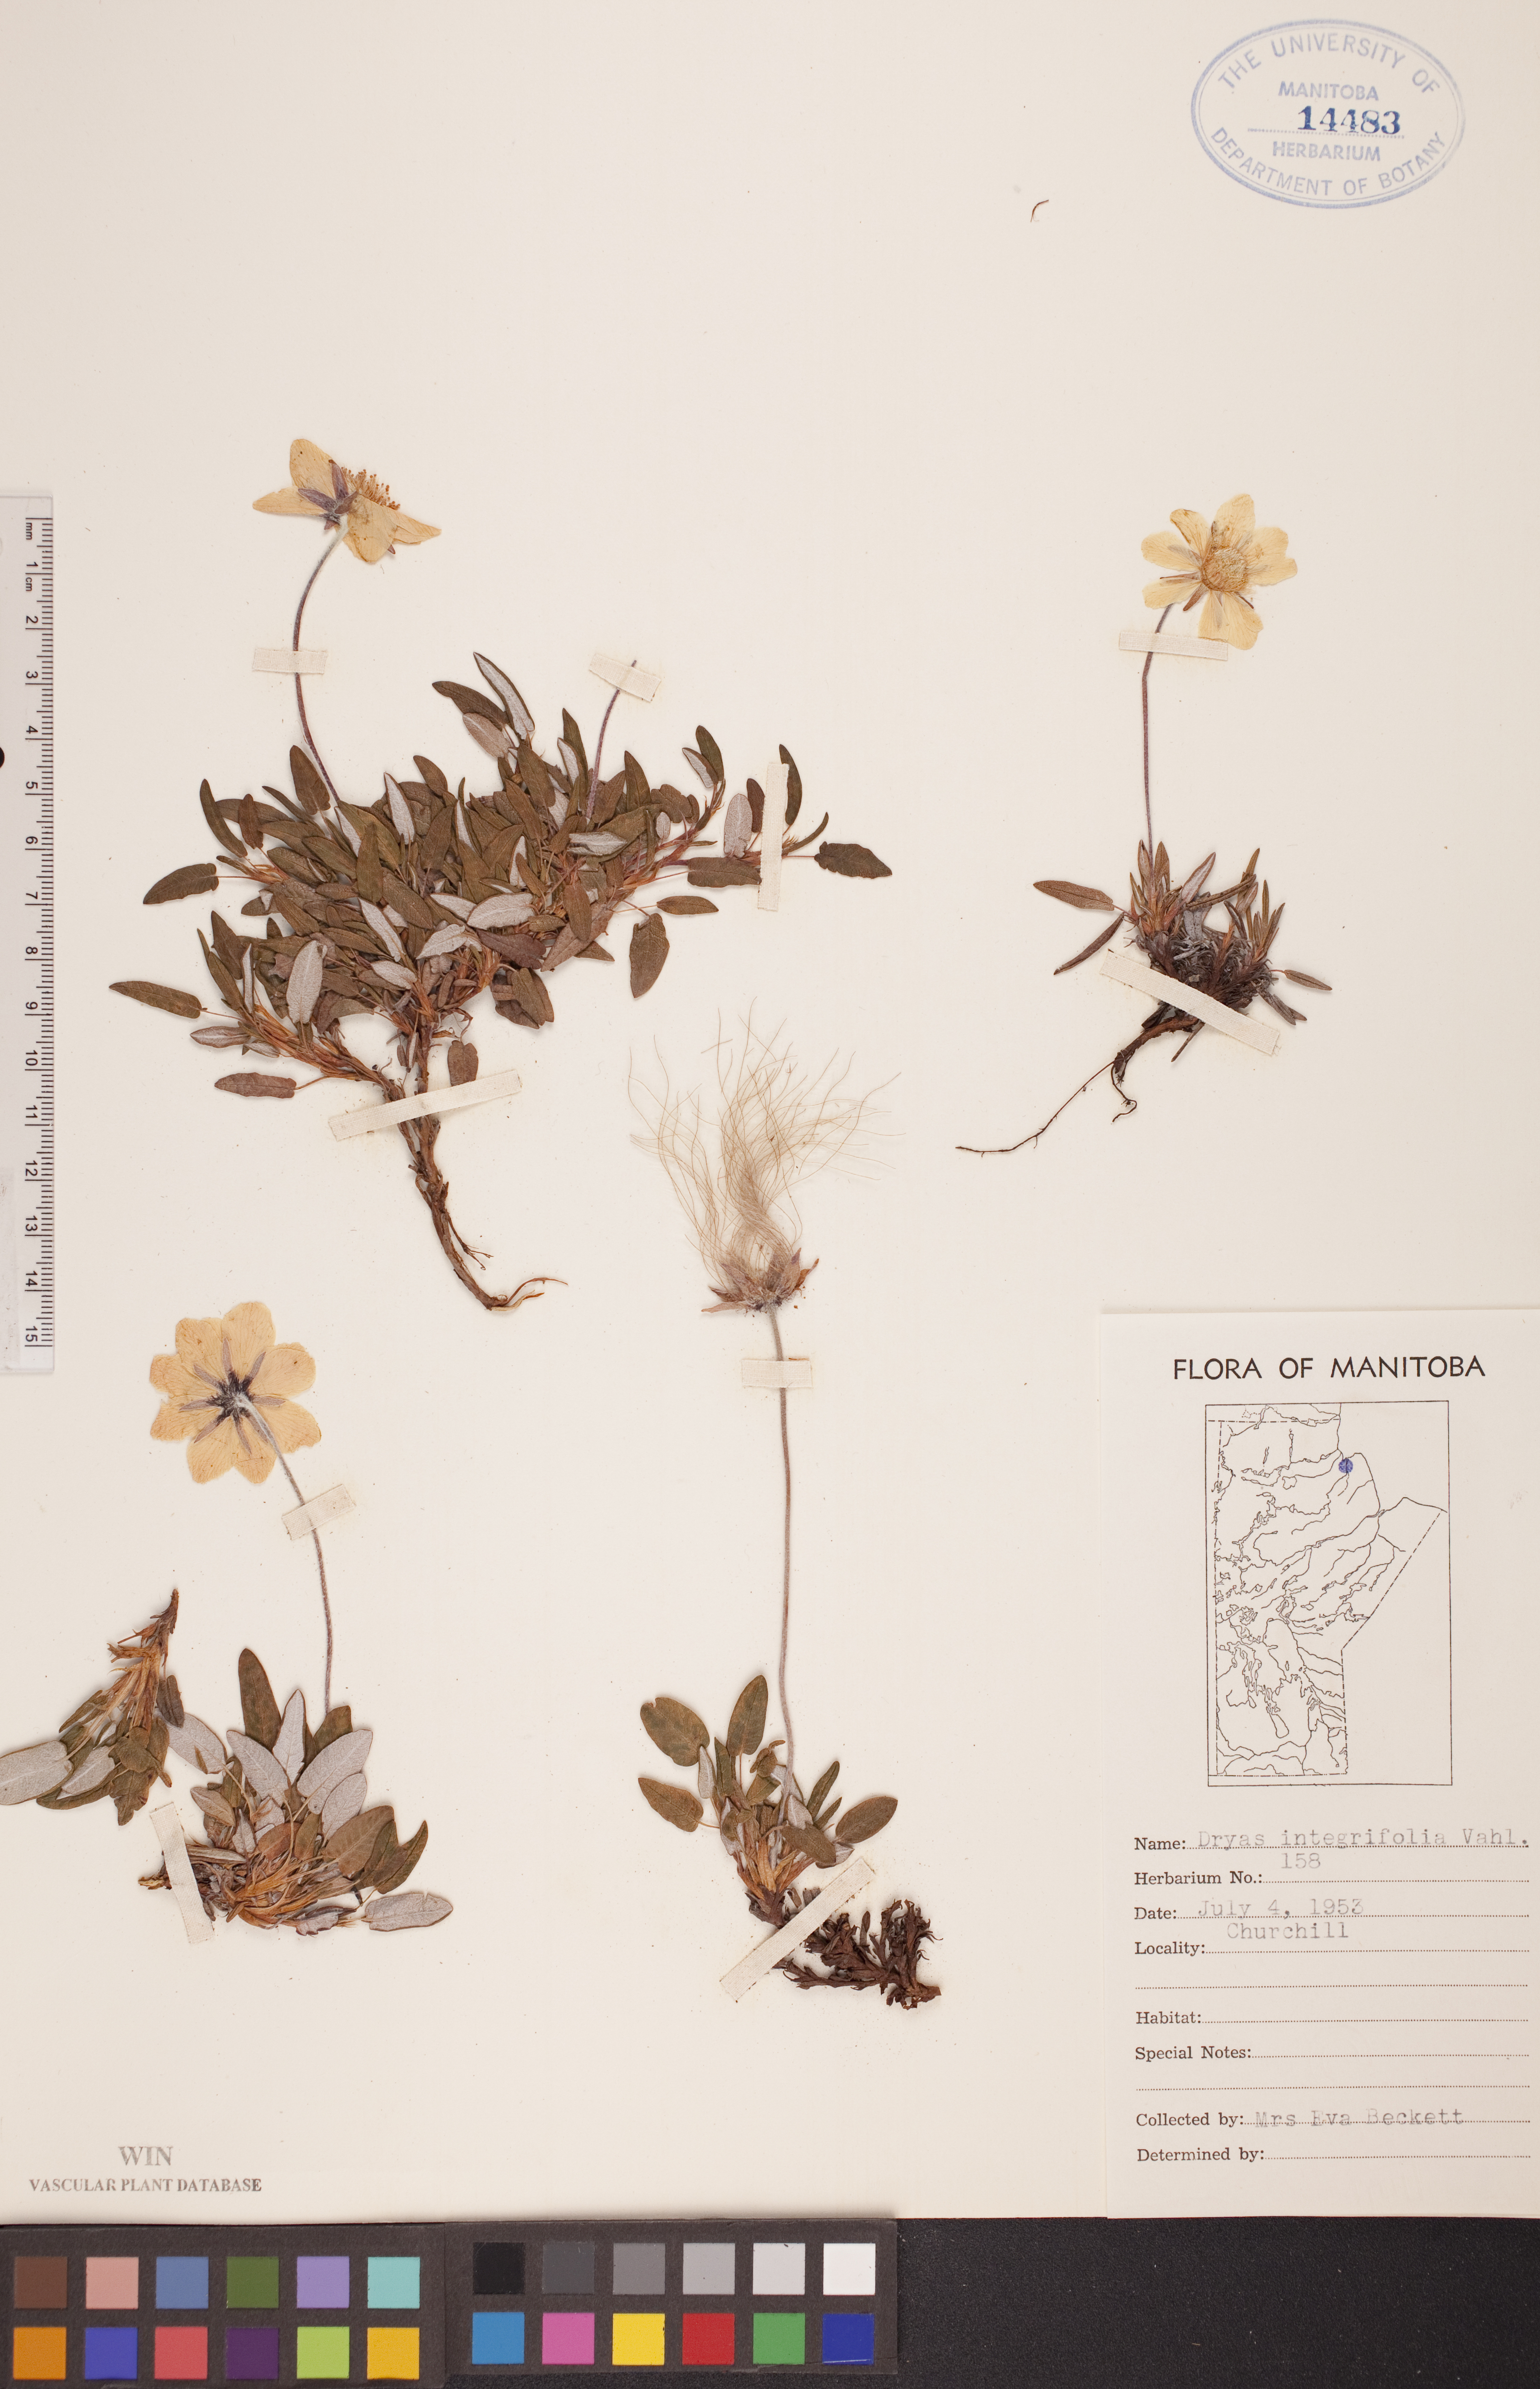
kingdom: Plantae
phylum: Tracheophyta
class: Magnoliopsida
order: Rosales
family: Rosaceae
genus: Dryas
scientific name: Dryas integrifolia
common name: Entire-leaved mountain avens
